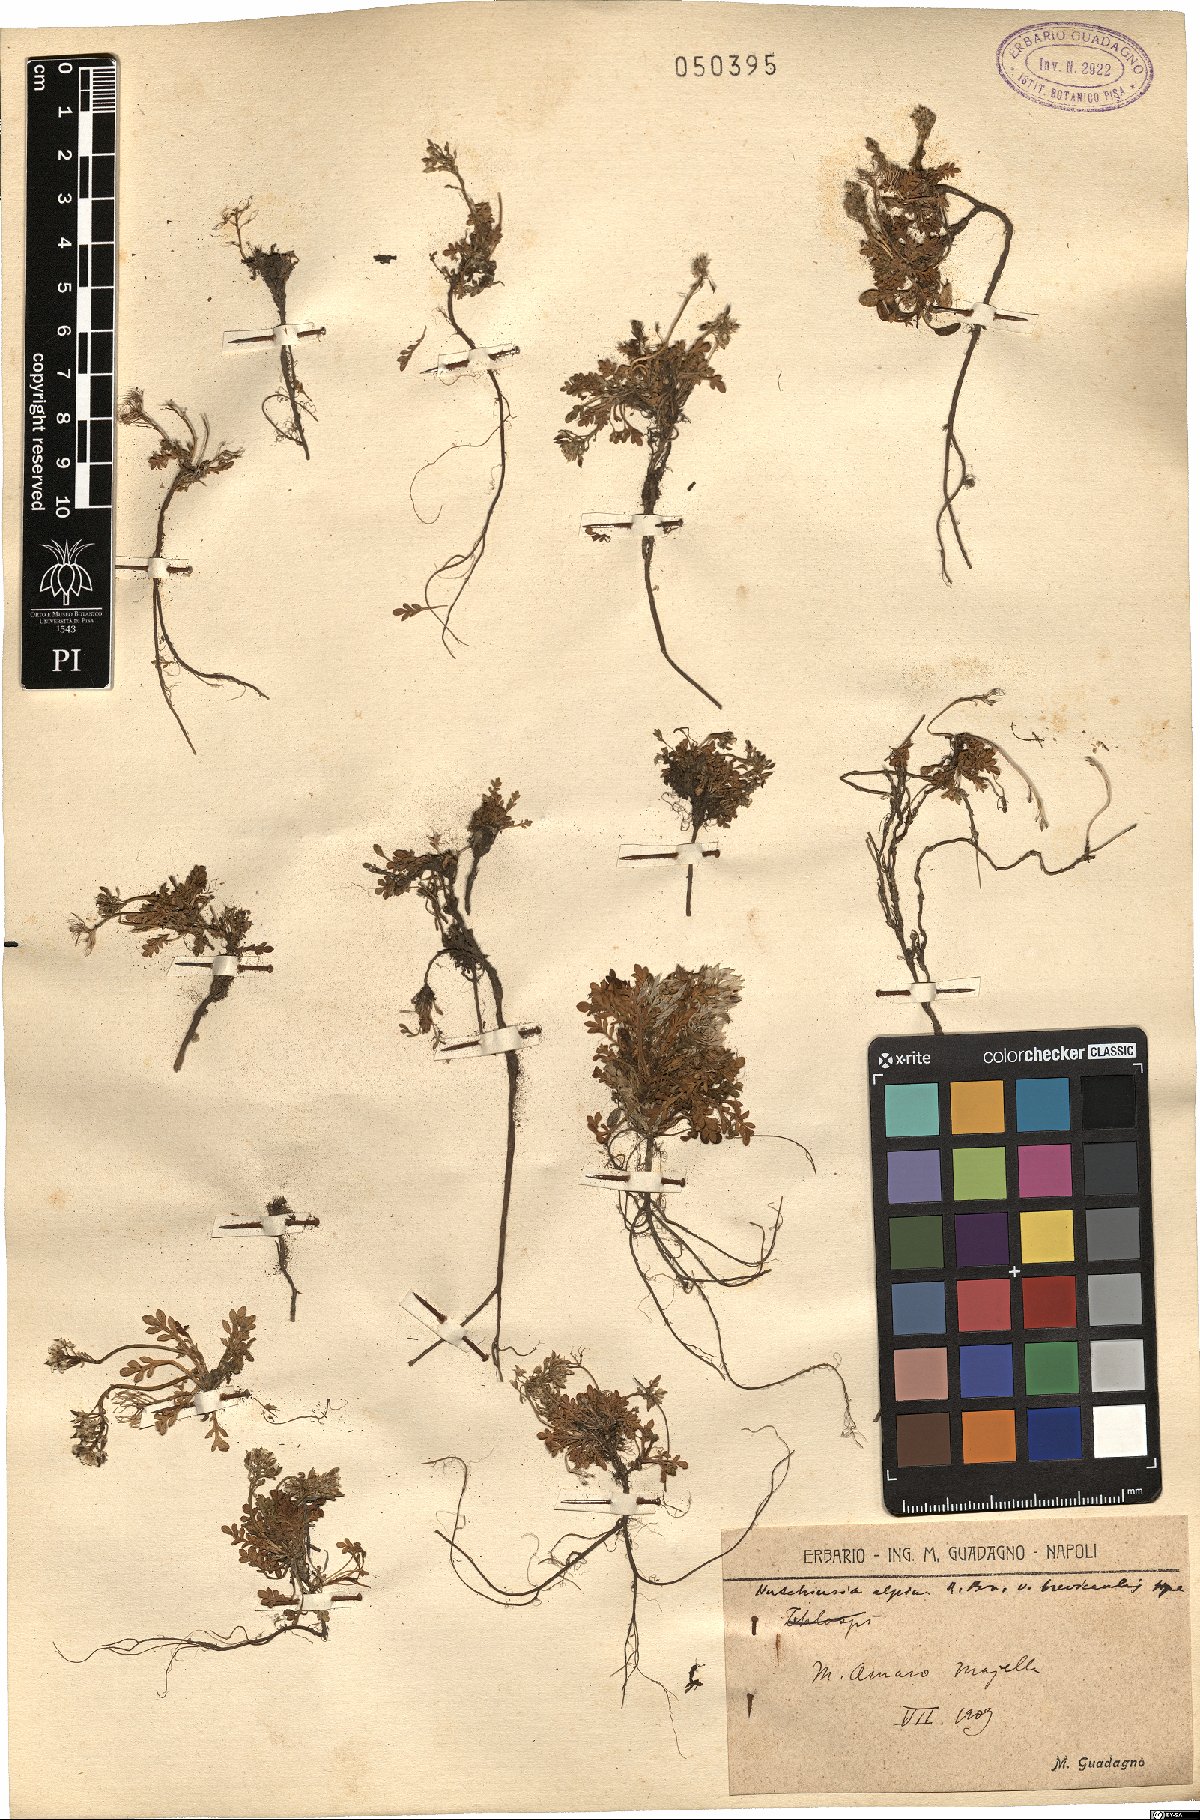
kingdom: Plantae
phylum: Tracheophyta
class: Magnoliopsida
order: Brassicales
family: Brassicaceae
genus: Hornungia
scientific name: Hornungia alpina
